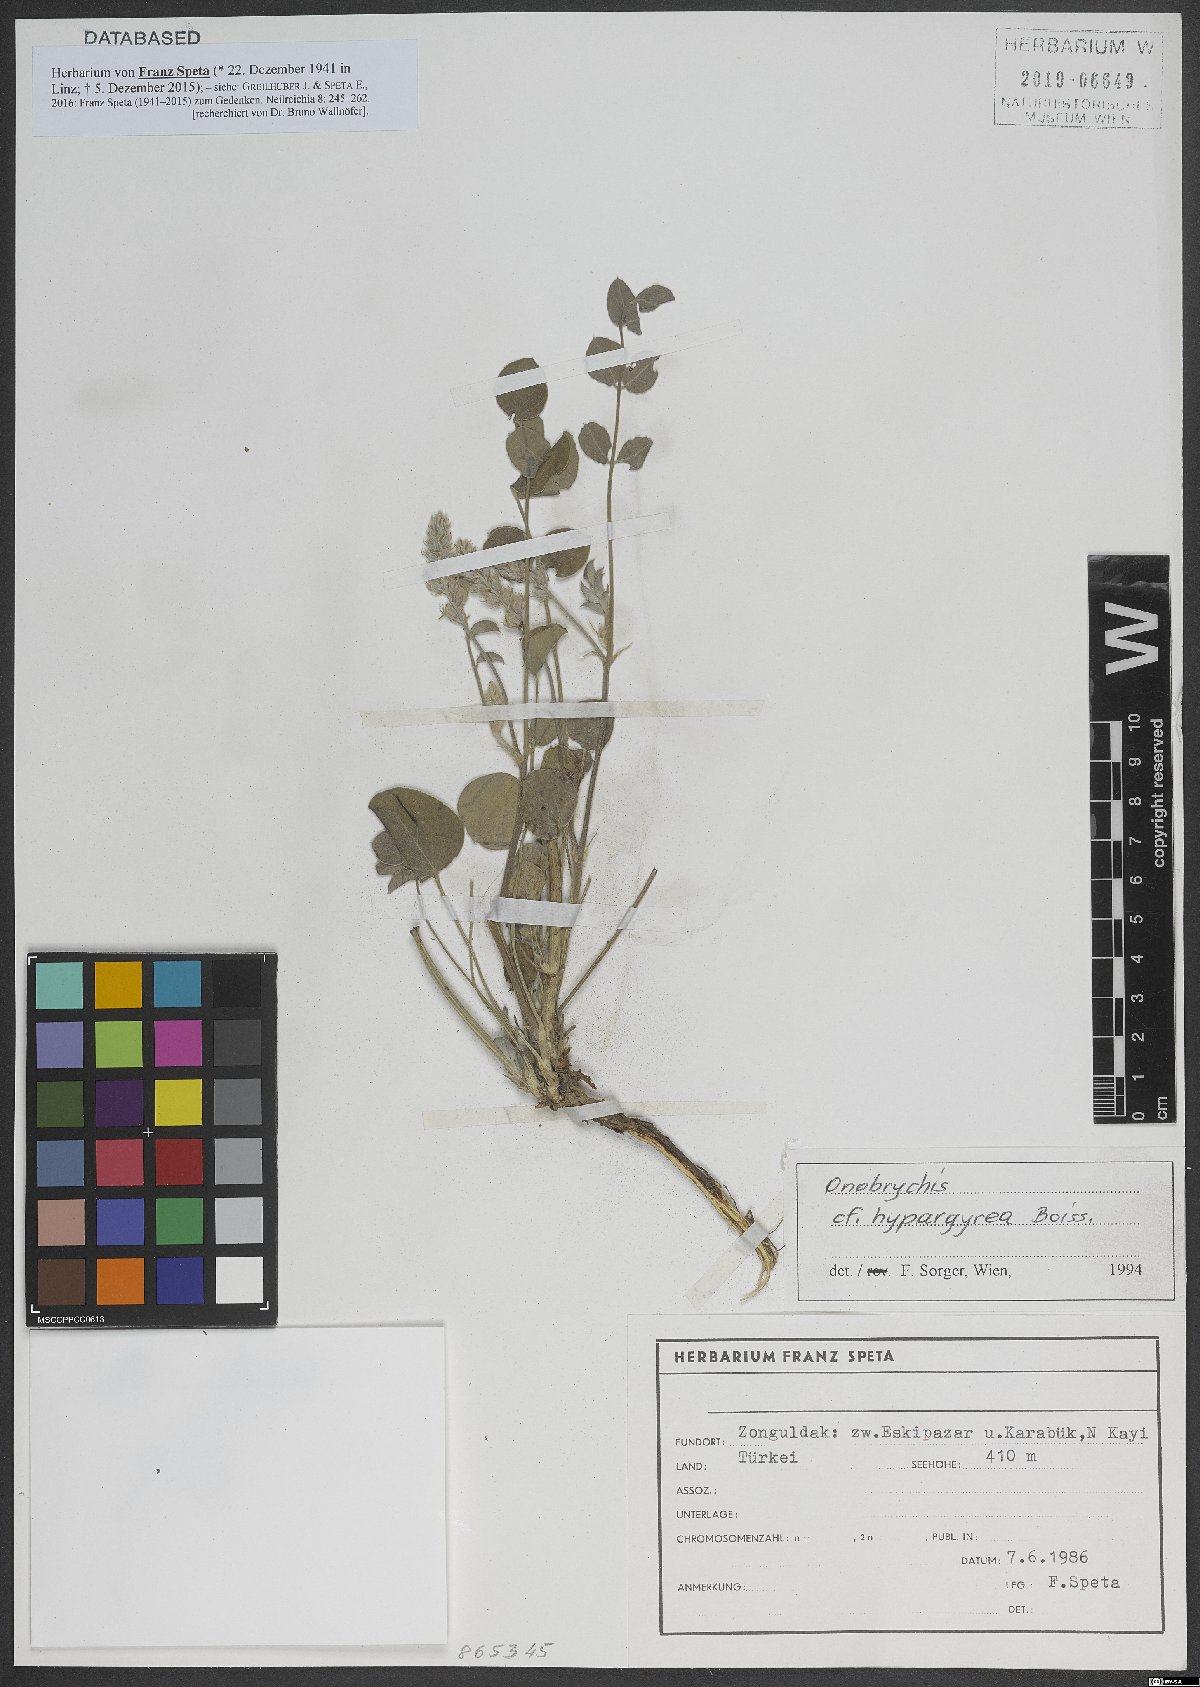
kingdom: Plantae
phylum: Tracheophyta
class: Magnoliopsida
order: Fabales
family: Fabaceae
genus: Onobrychis
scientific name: Onobrychis hypargyrea
